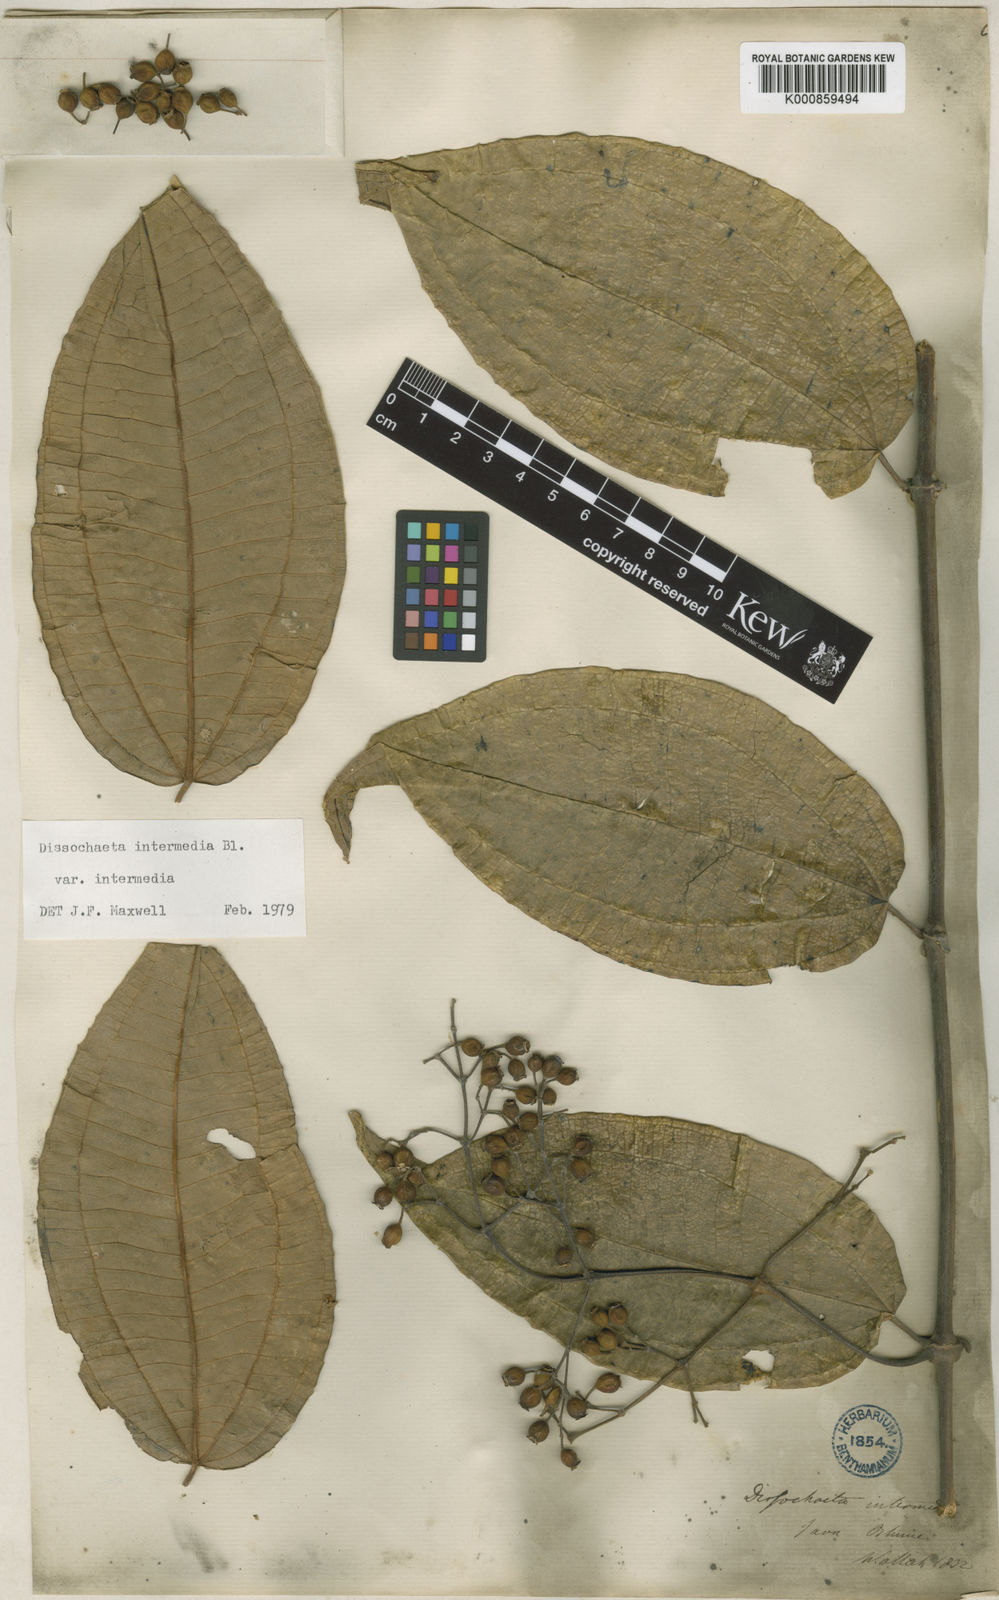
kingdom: Plantae
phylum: Tracheophyta
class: Magnoliopsida
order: Myrtales
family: Melastomataceae
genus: Dissochaeta
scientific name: Dissochaeta intermedia
